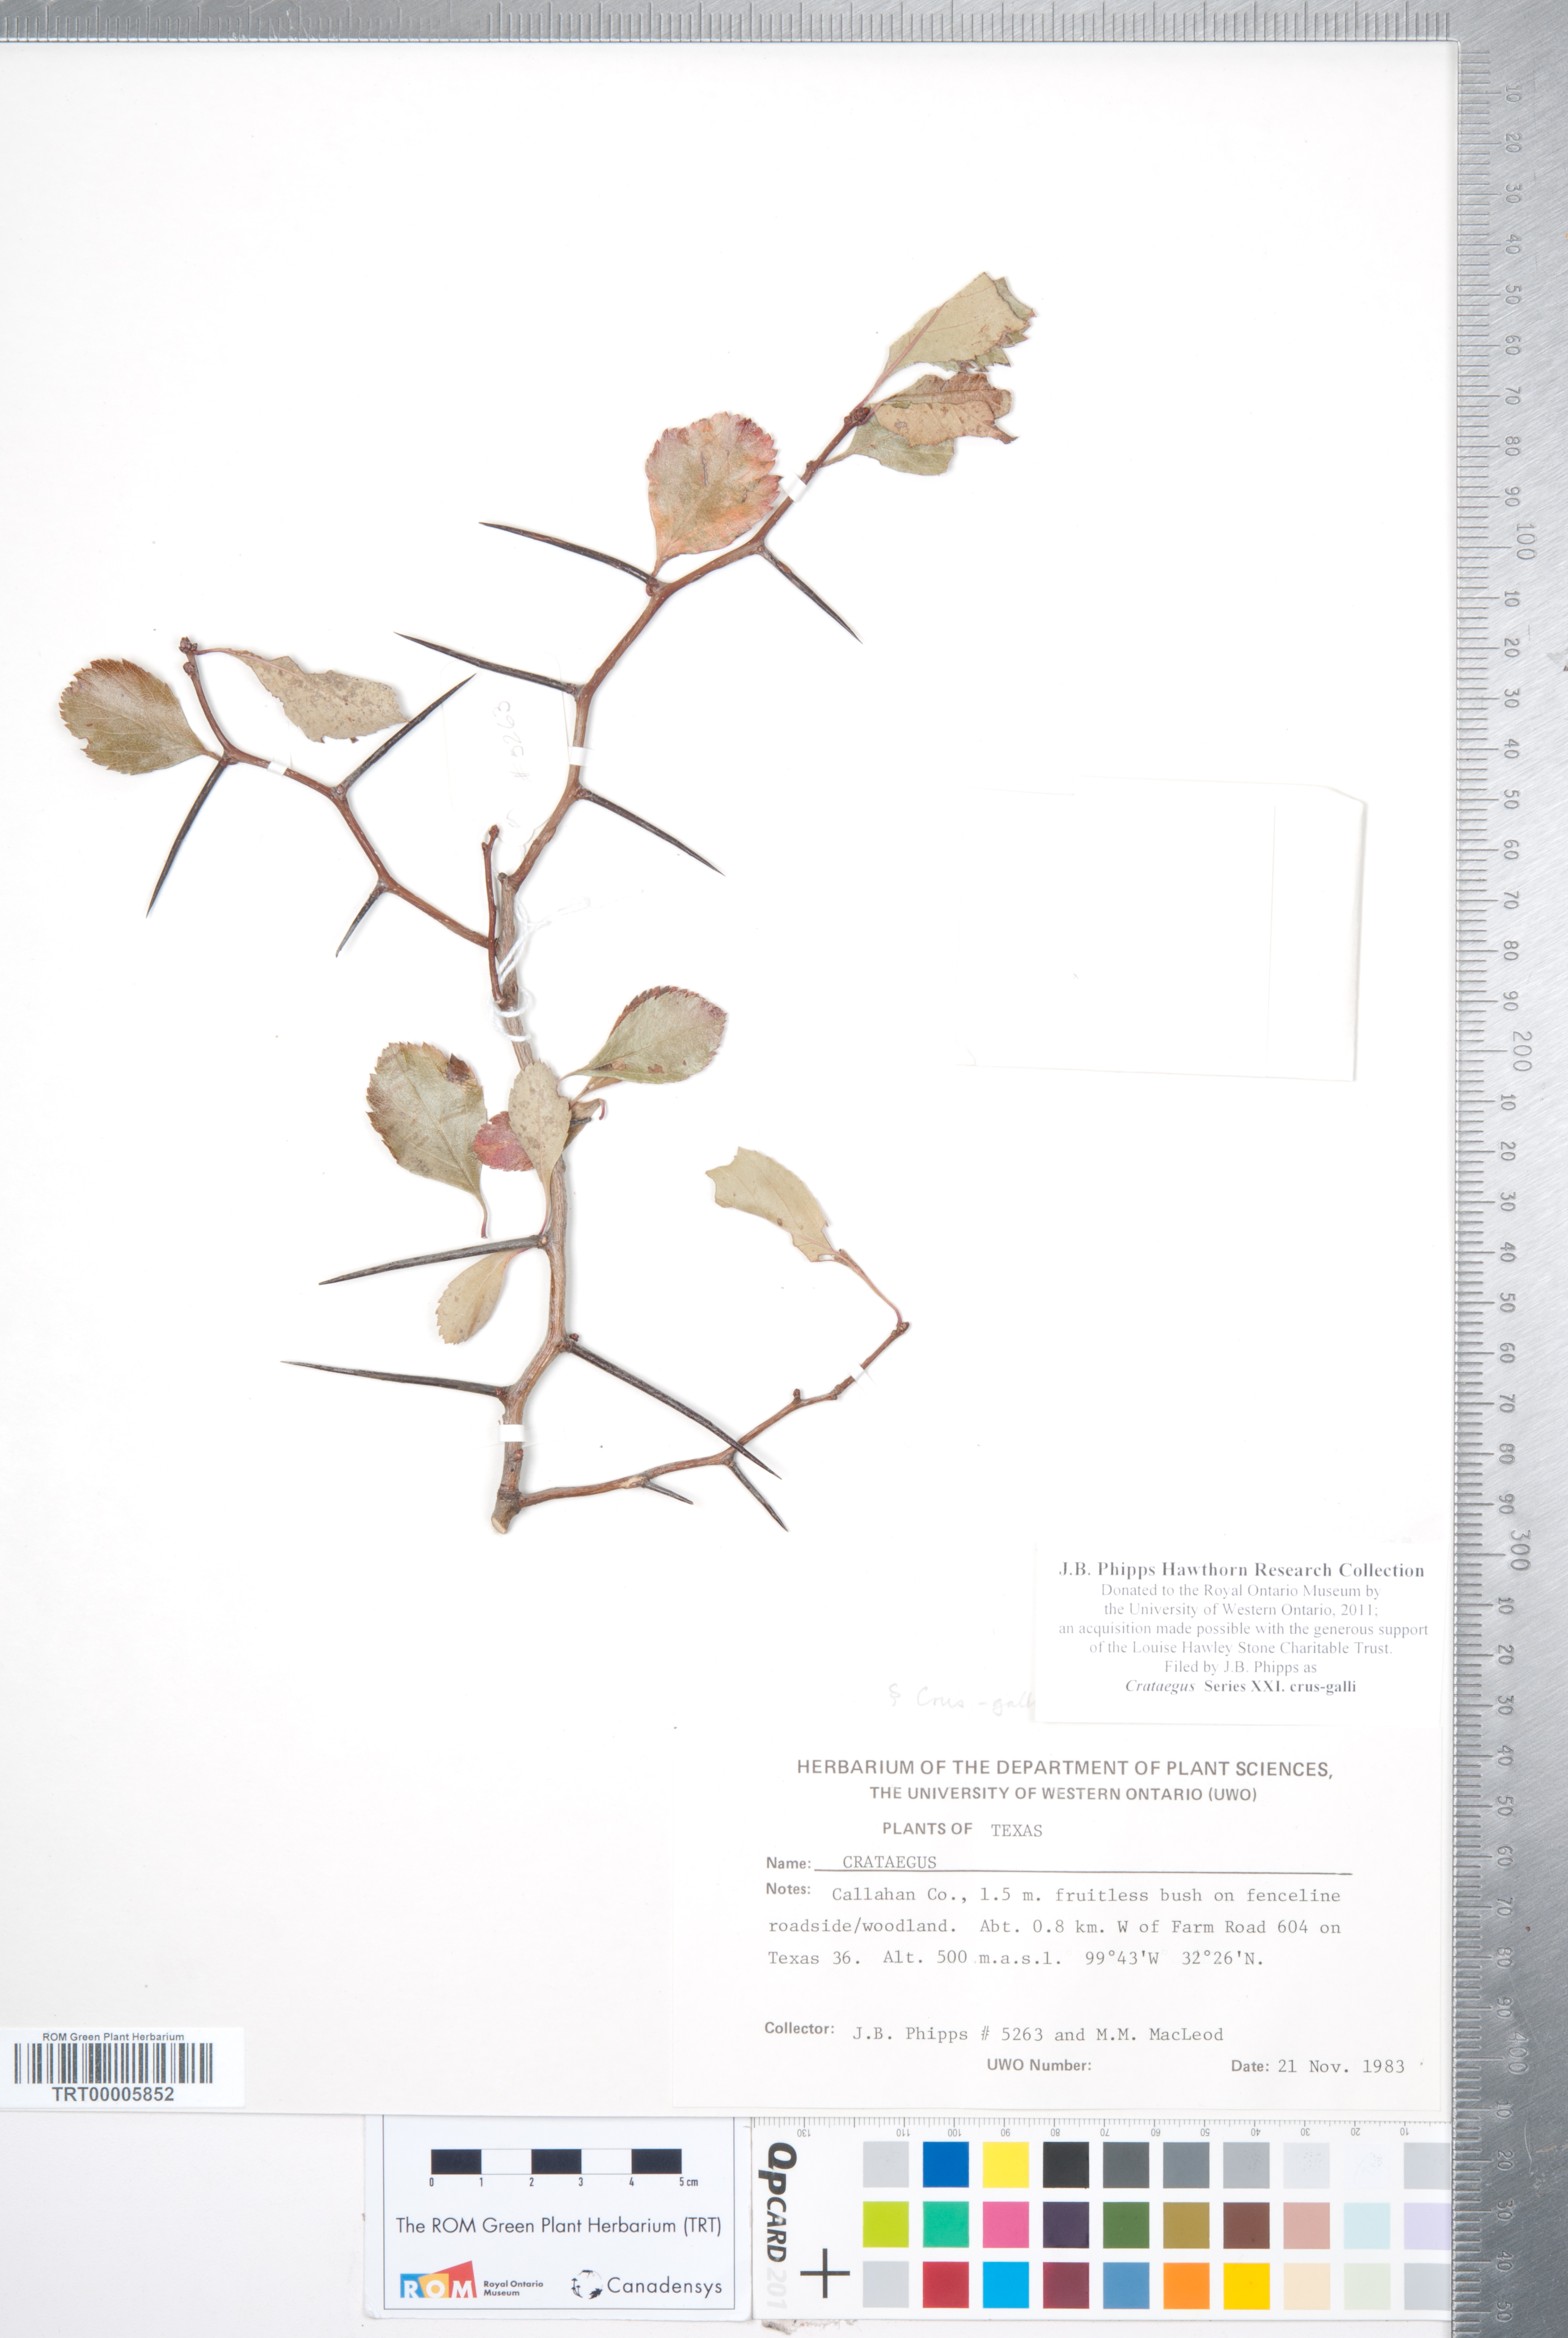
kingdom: Plantae
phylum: Tracheophyta
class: Magnoliopsida
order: Rosales
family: Rosaceae
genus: Crataegus
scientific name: Crataegus
